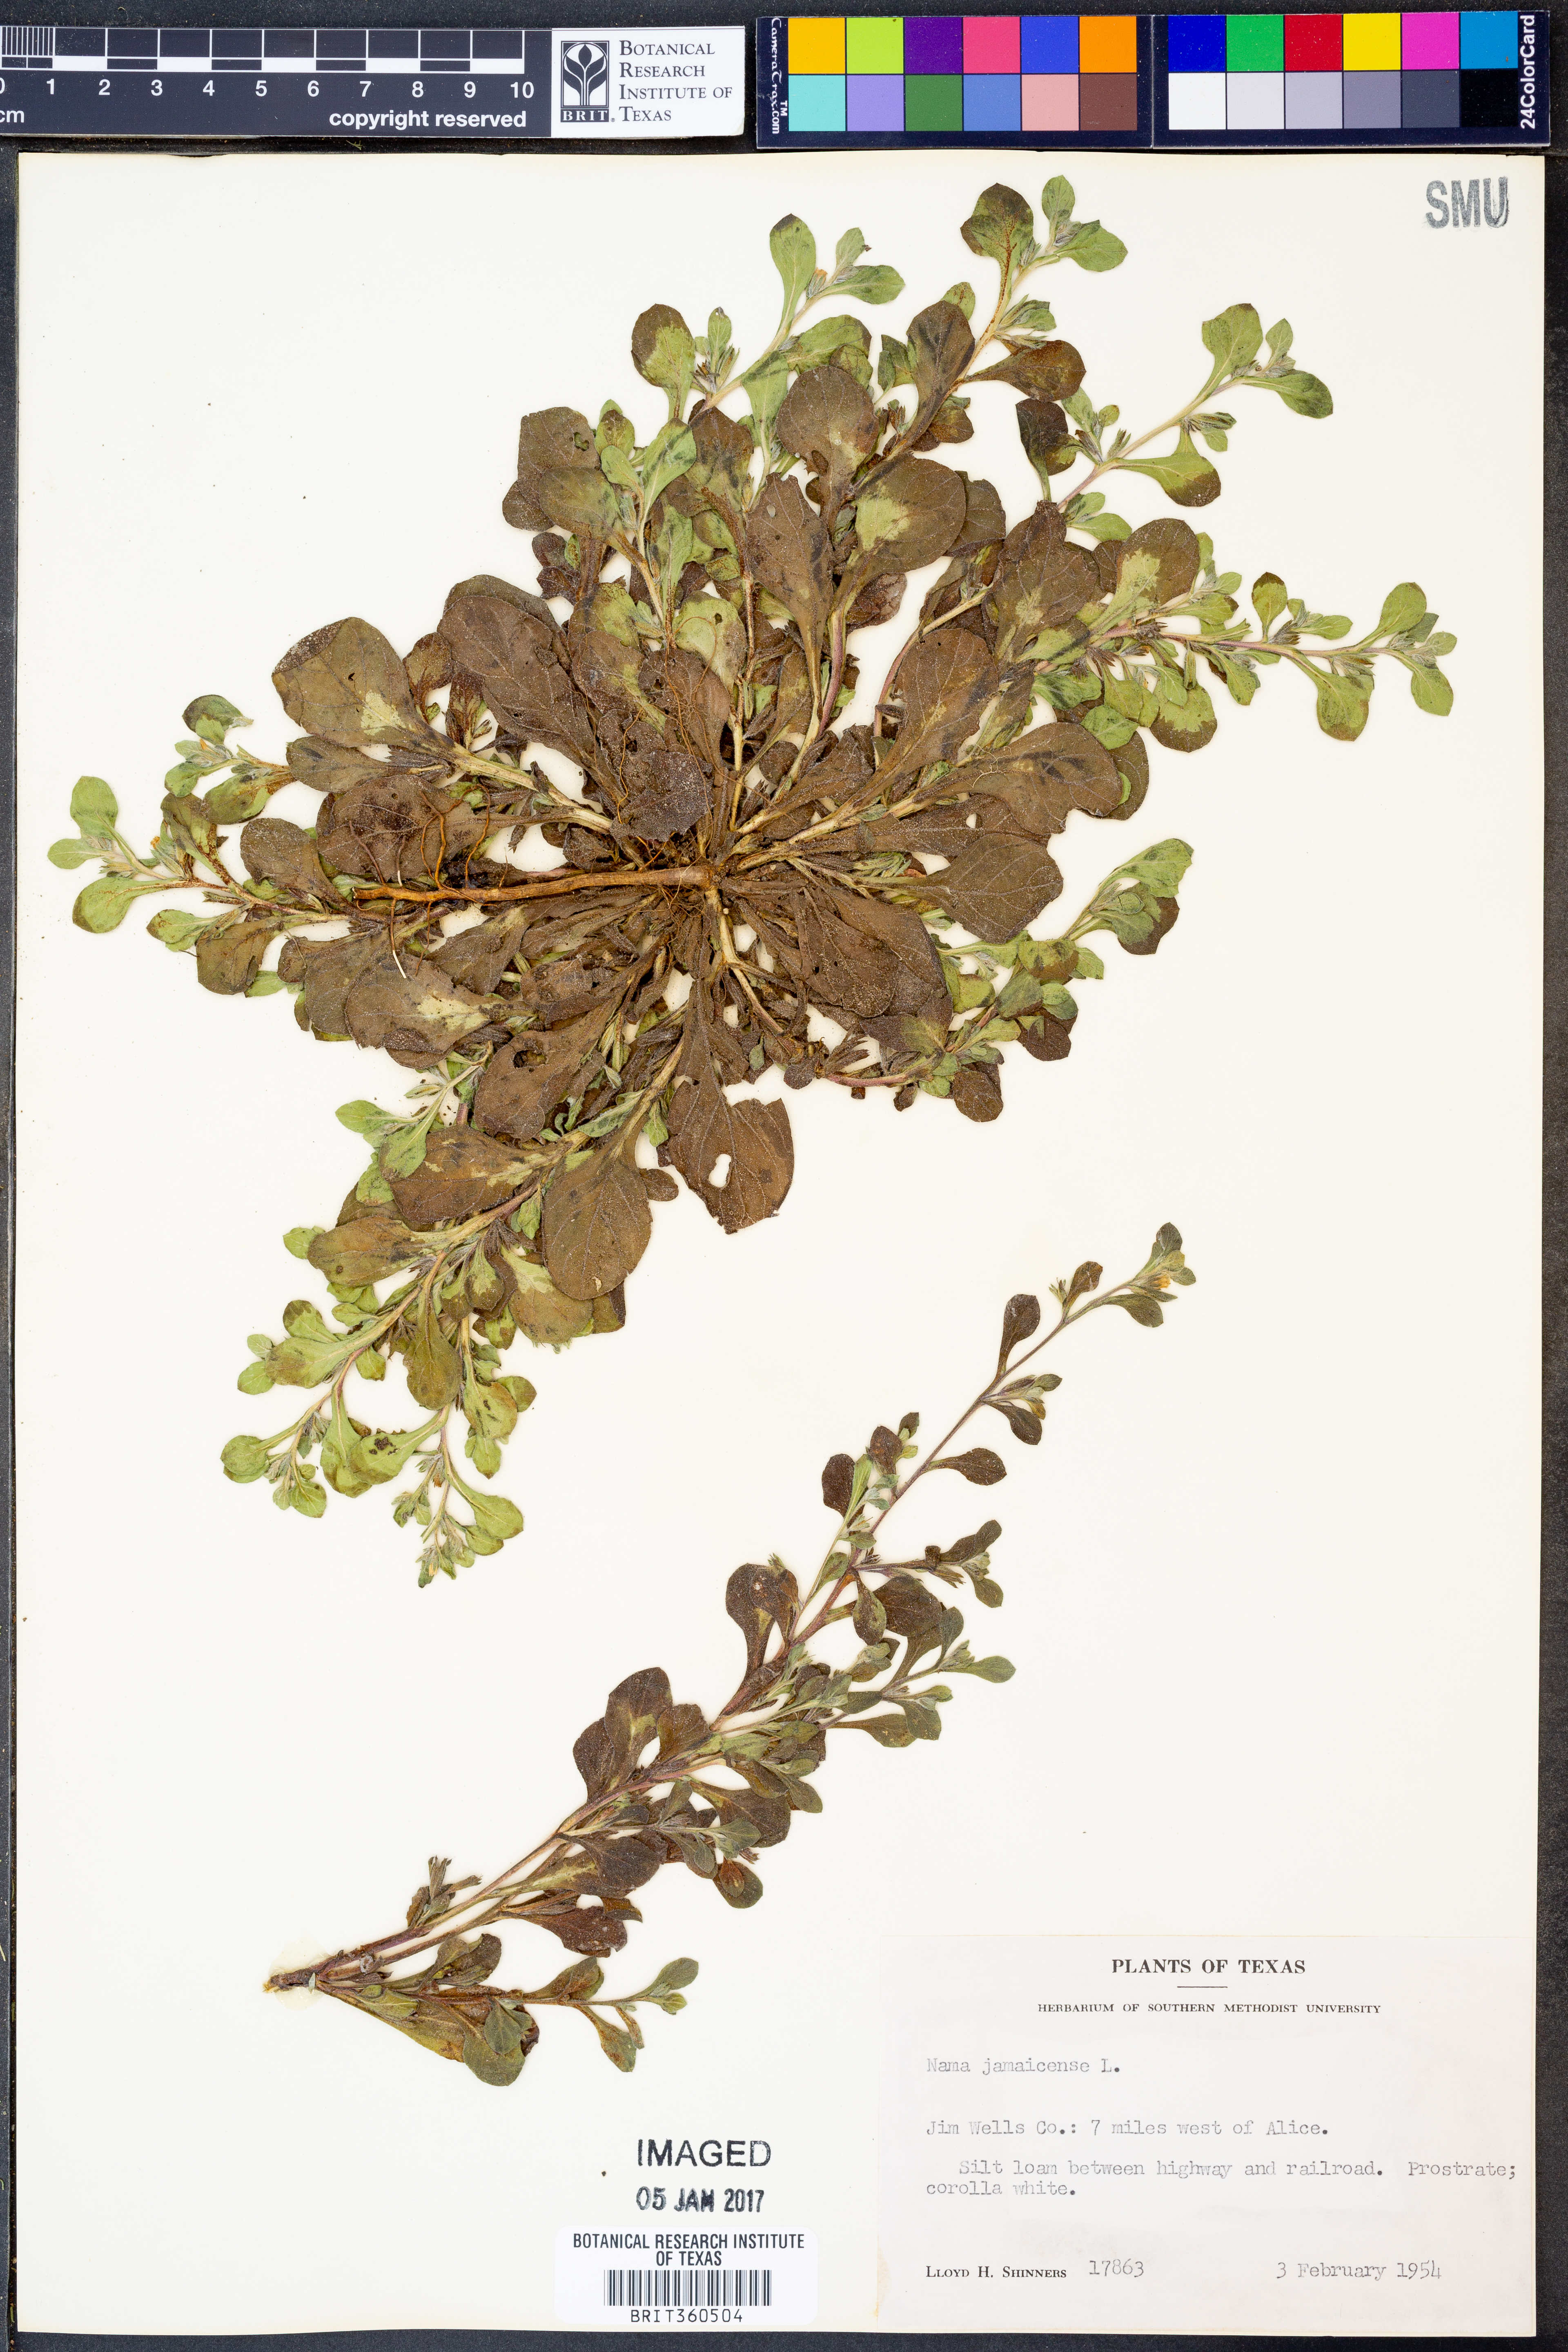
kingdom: Plantae
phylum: Tracheophyta
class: Magnoliopsida
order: Boraginales
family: Namaceae
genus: Nama
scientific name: Nama jamaicense
